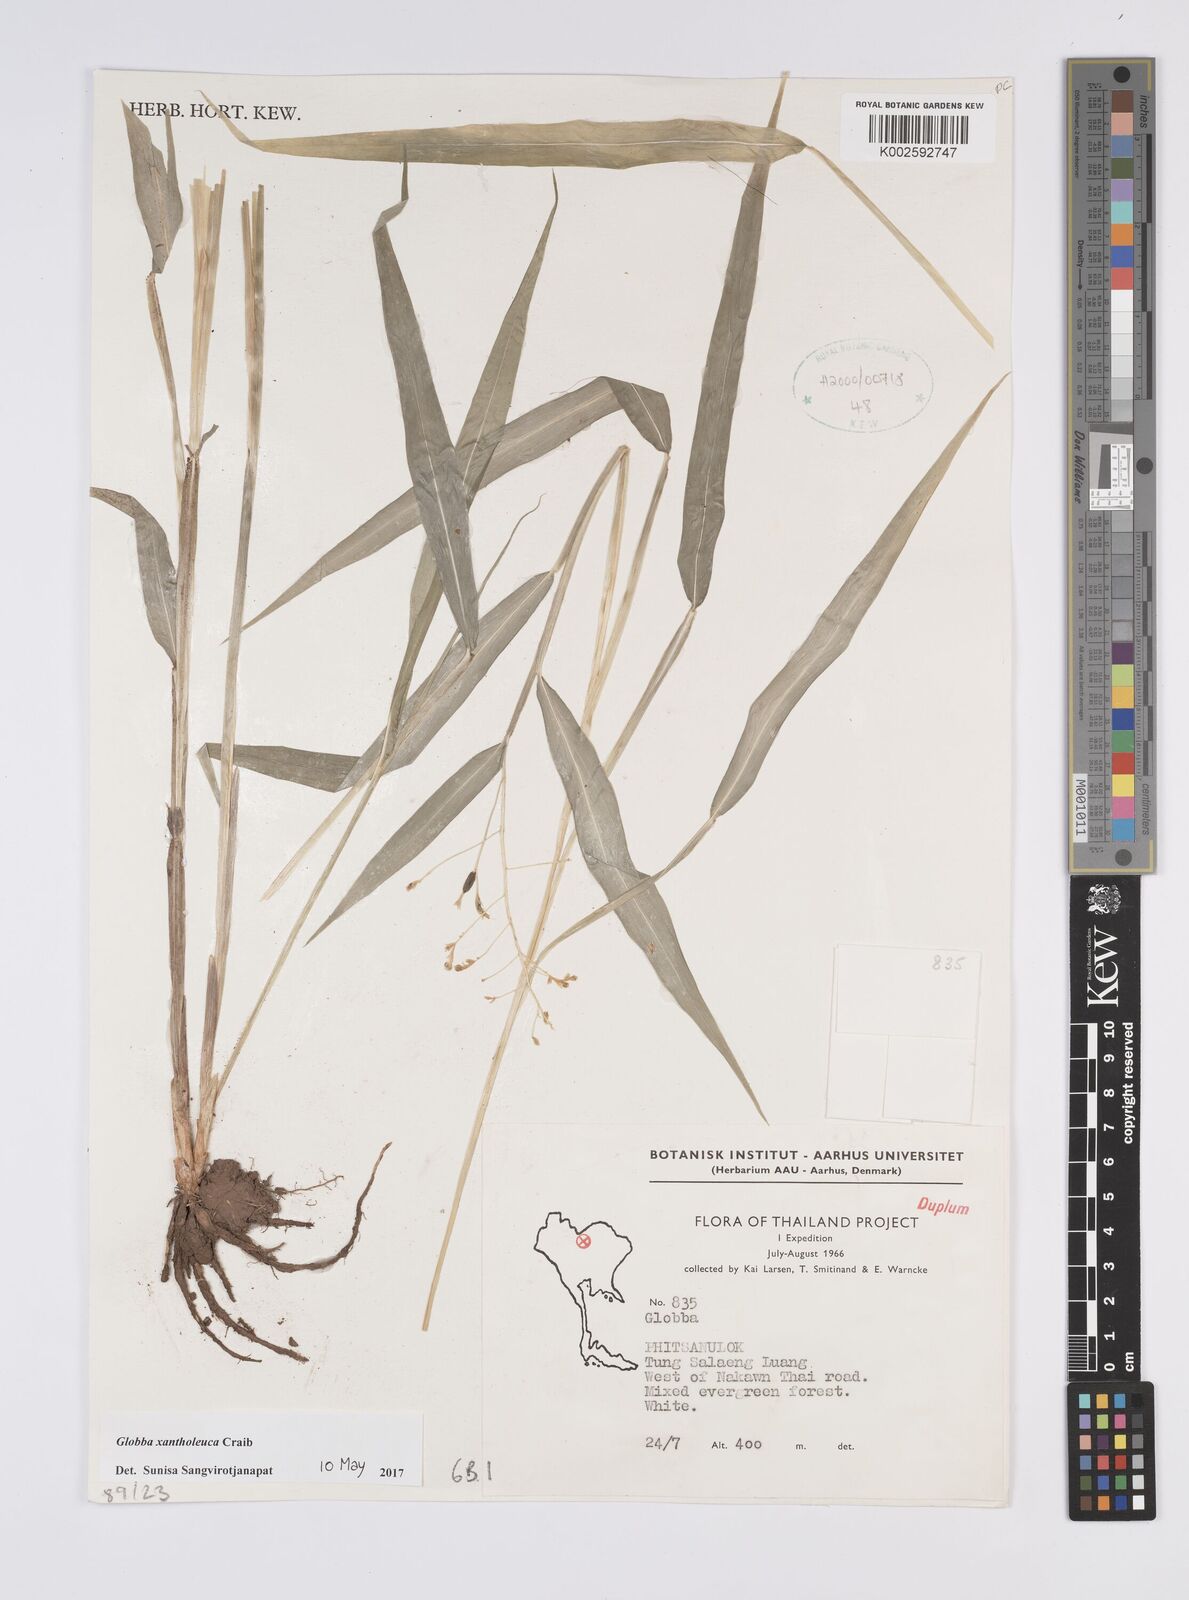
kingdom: Plantae
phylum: Tracheophyta
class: Liliopsida
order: Zingiberales
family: Zingiberaceae
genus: Globba
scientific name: Globba xantholeuca
